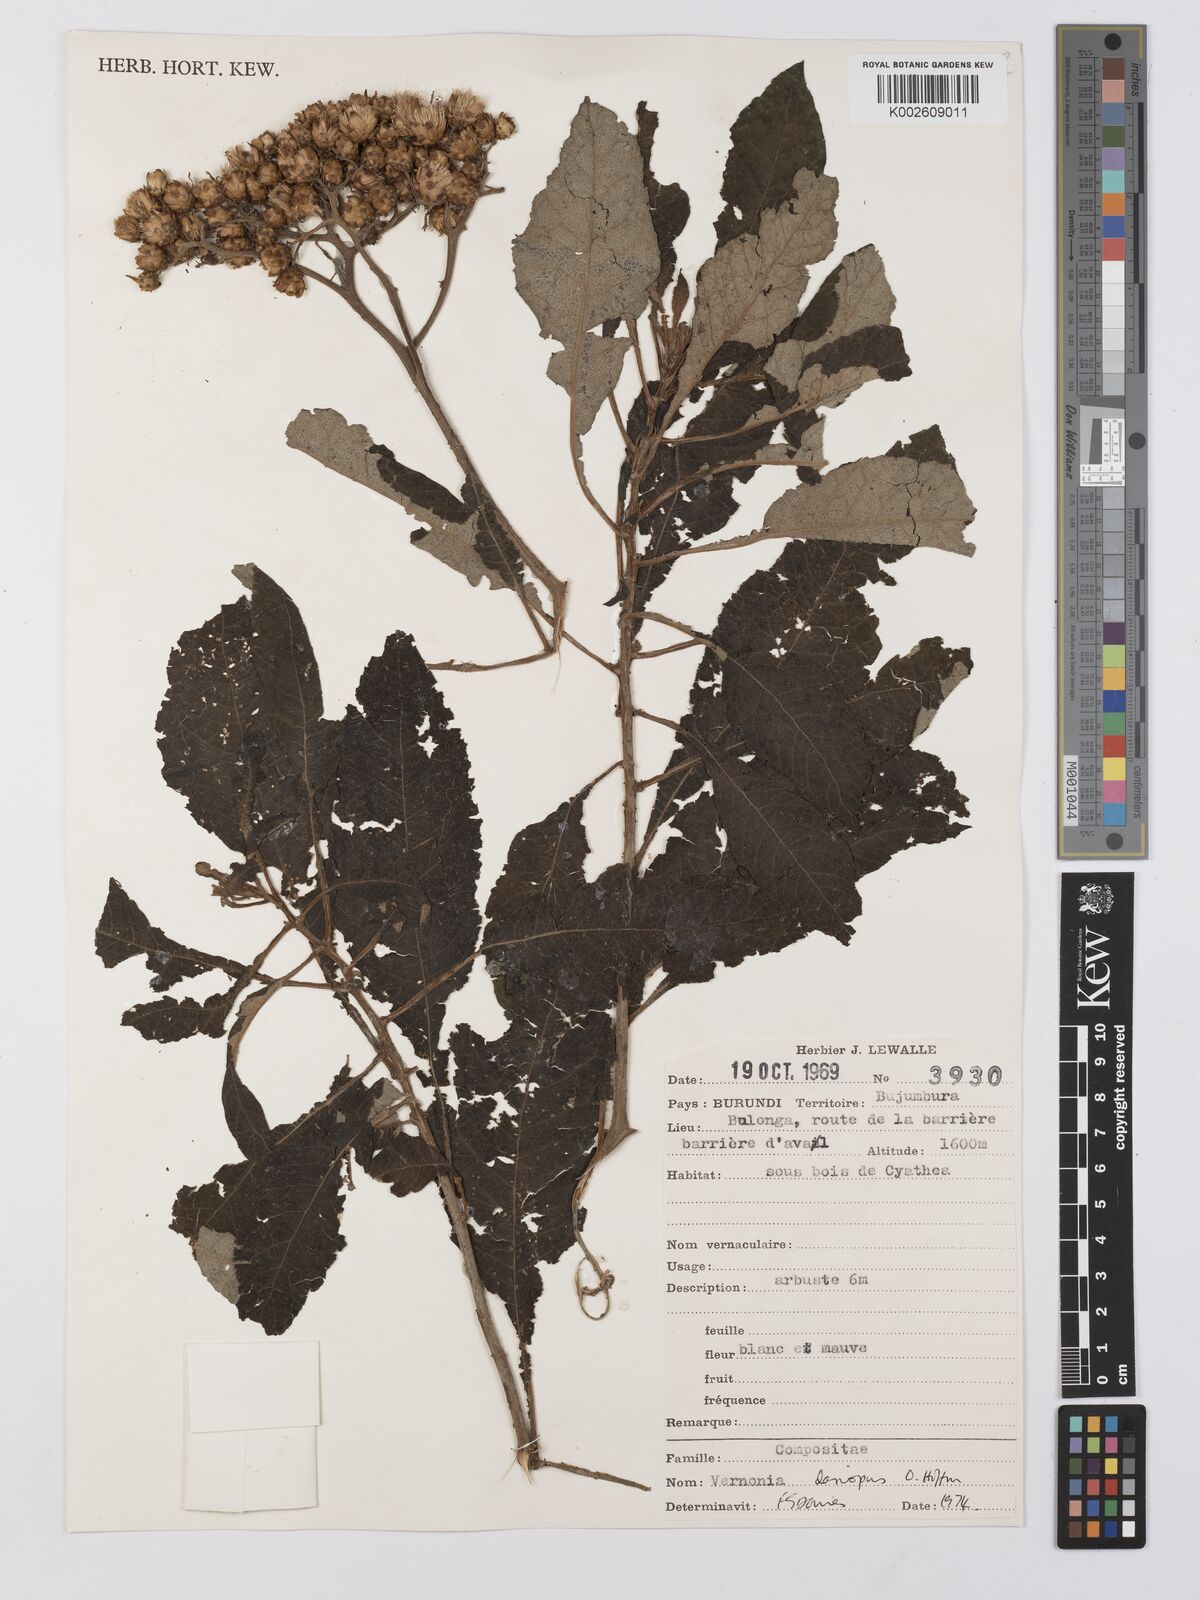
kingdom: Plantae
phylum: Tracheophyta
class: Magnoliopsida
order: Asterales
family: Asteraceae
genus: Baccharoides
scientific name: Baccharoides kirungae
